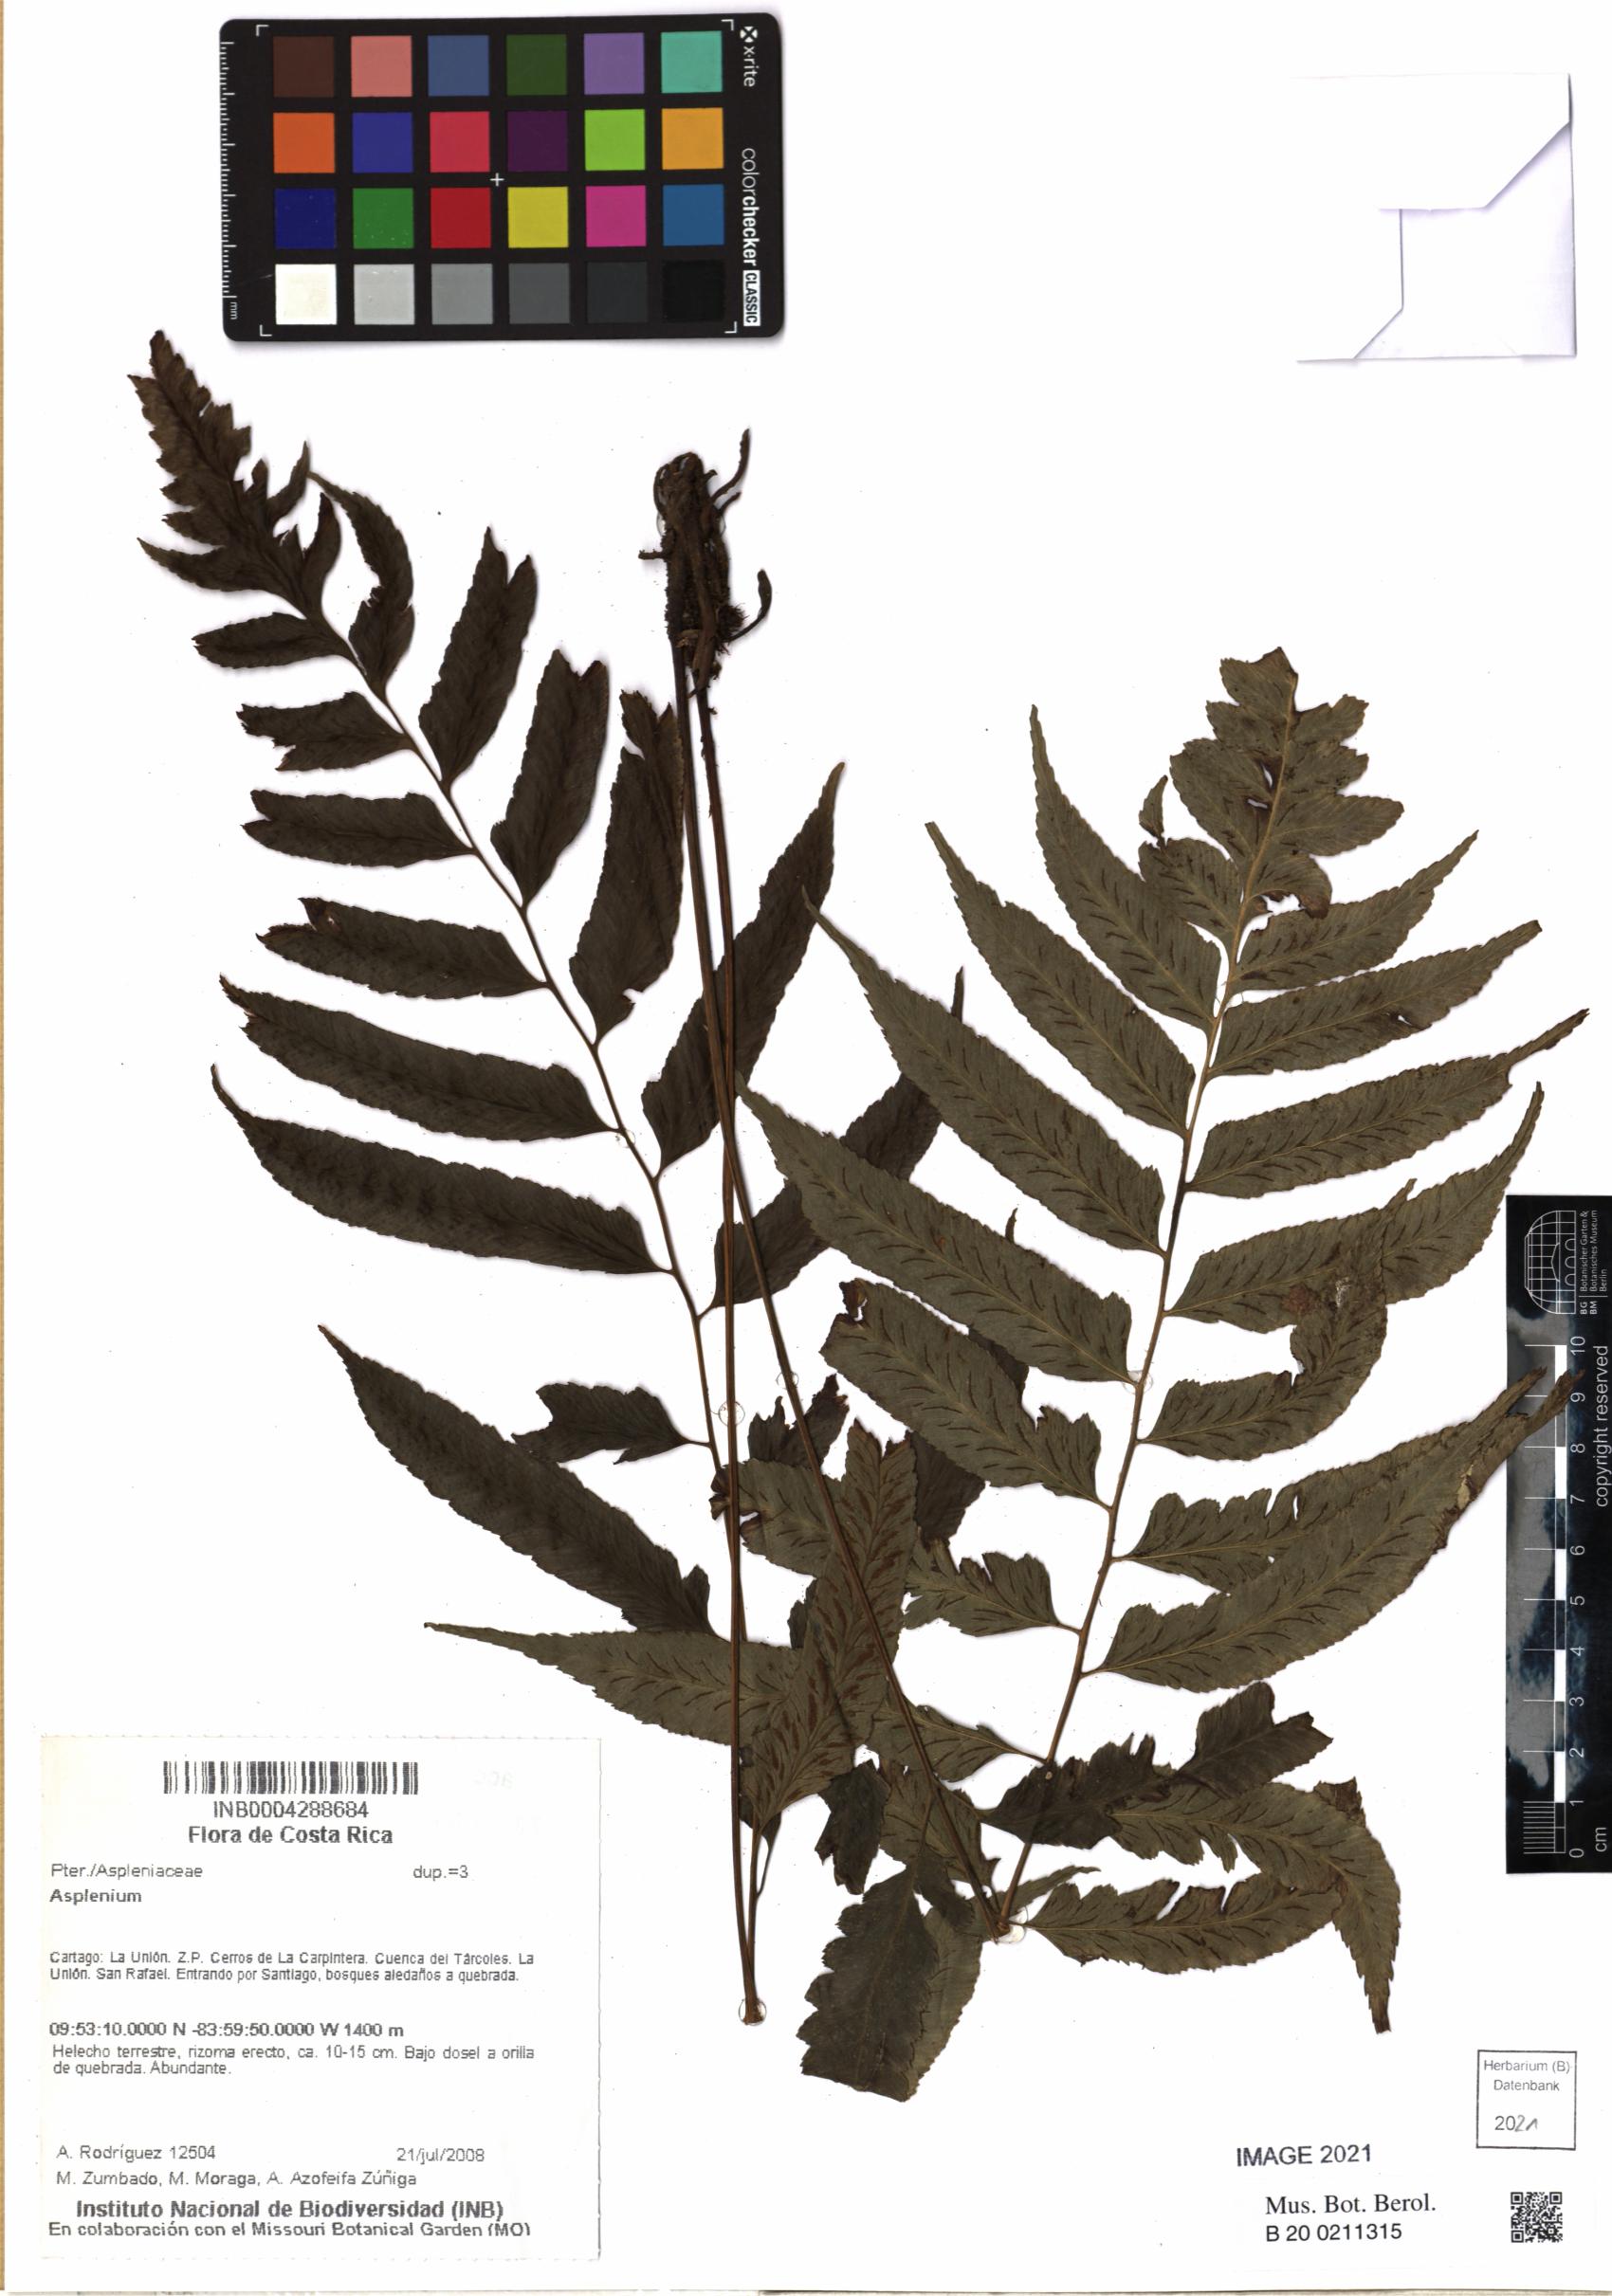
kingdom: Plantae
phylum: Tracheophyta
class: Polypodiopsida
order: Polypodiales
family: Aspleniaceae
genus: Asplenium
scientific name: Asplenium
